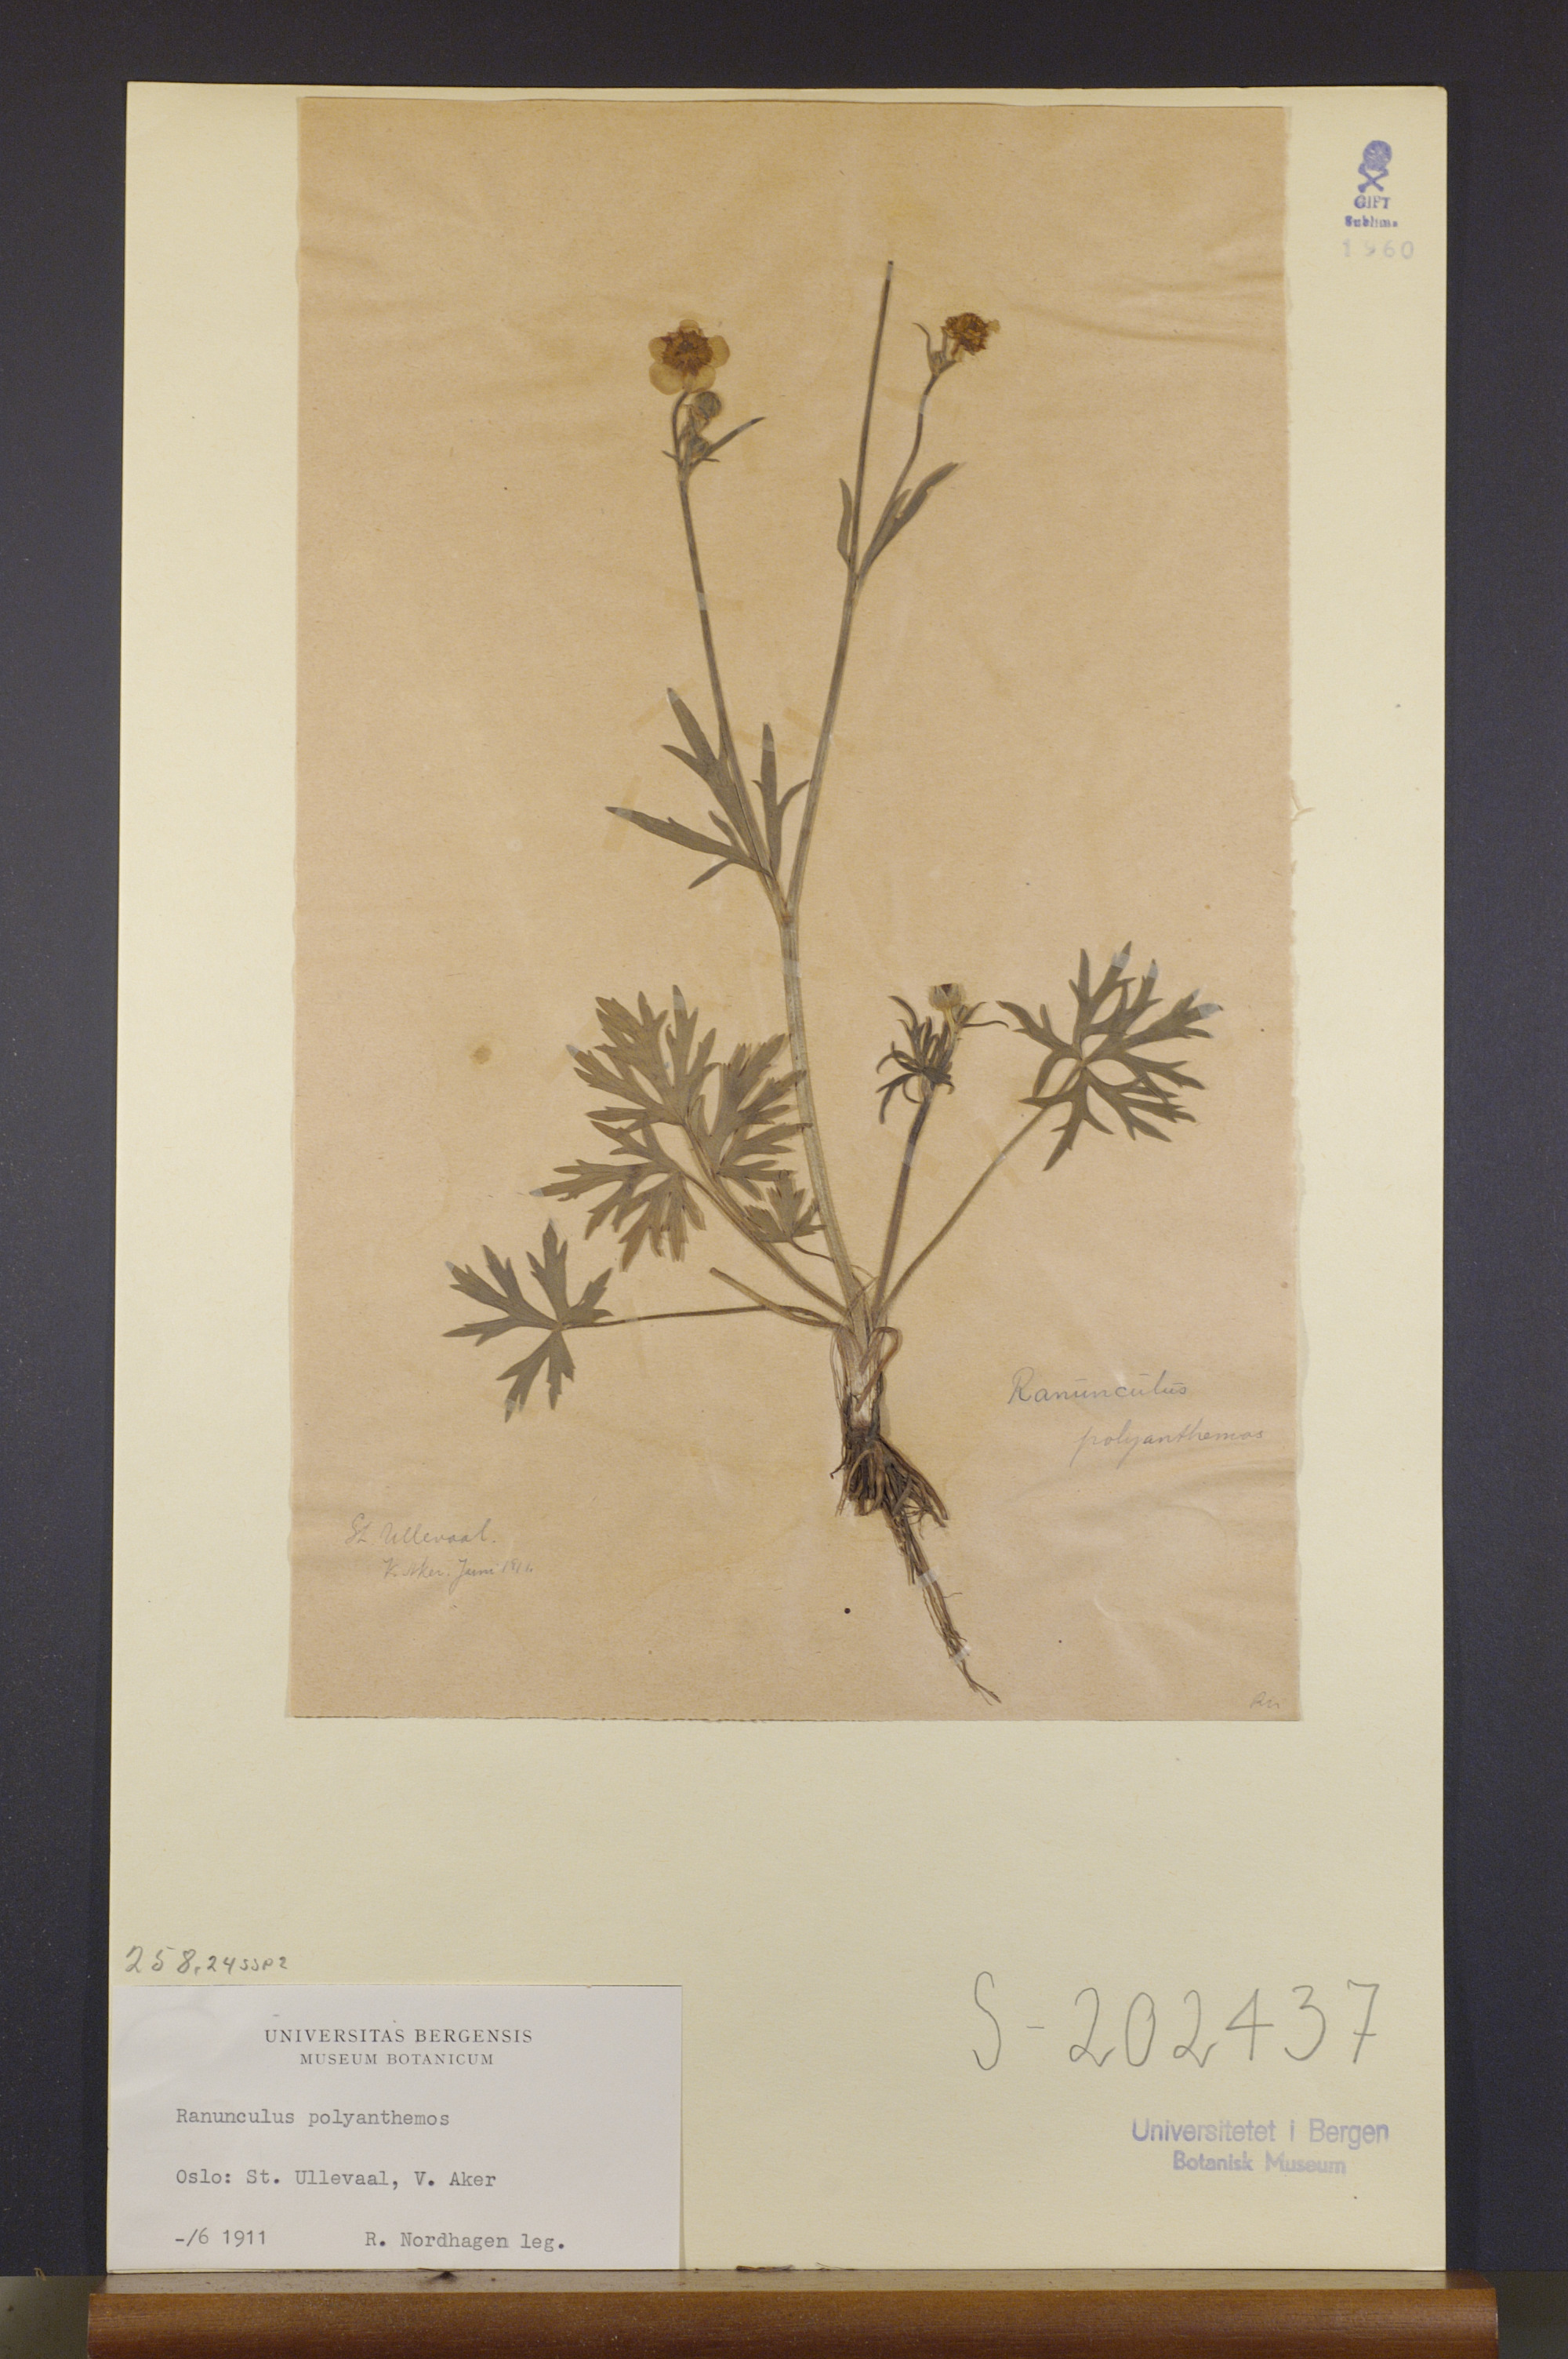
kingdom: Plantae
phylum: Tracheophyta
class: Magnoliopsida
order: Ranunculales
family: Ranunculaceae
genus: Ranunculus
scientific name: Ranunculus polyanthemos
